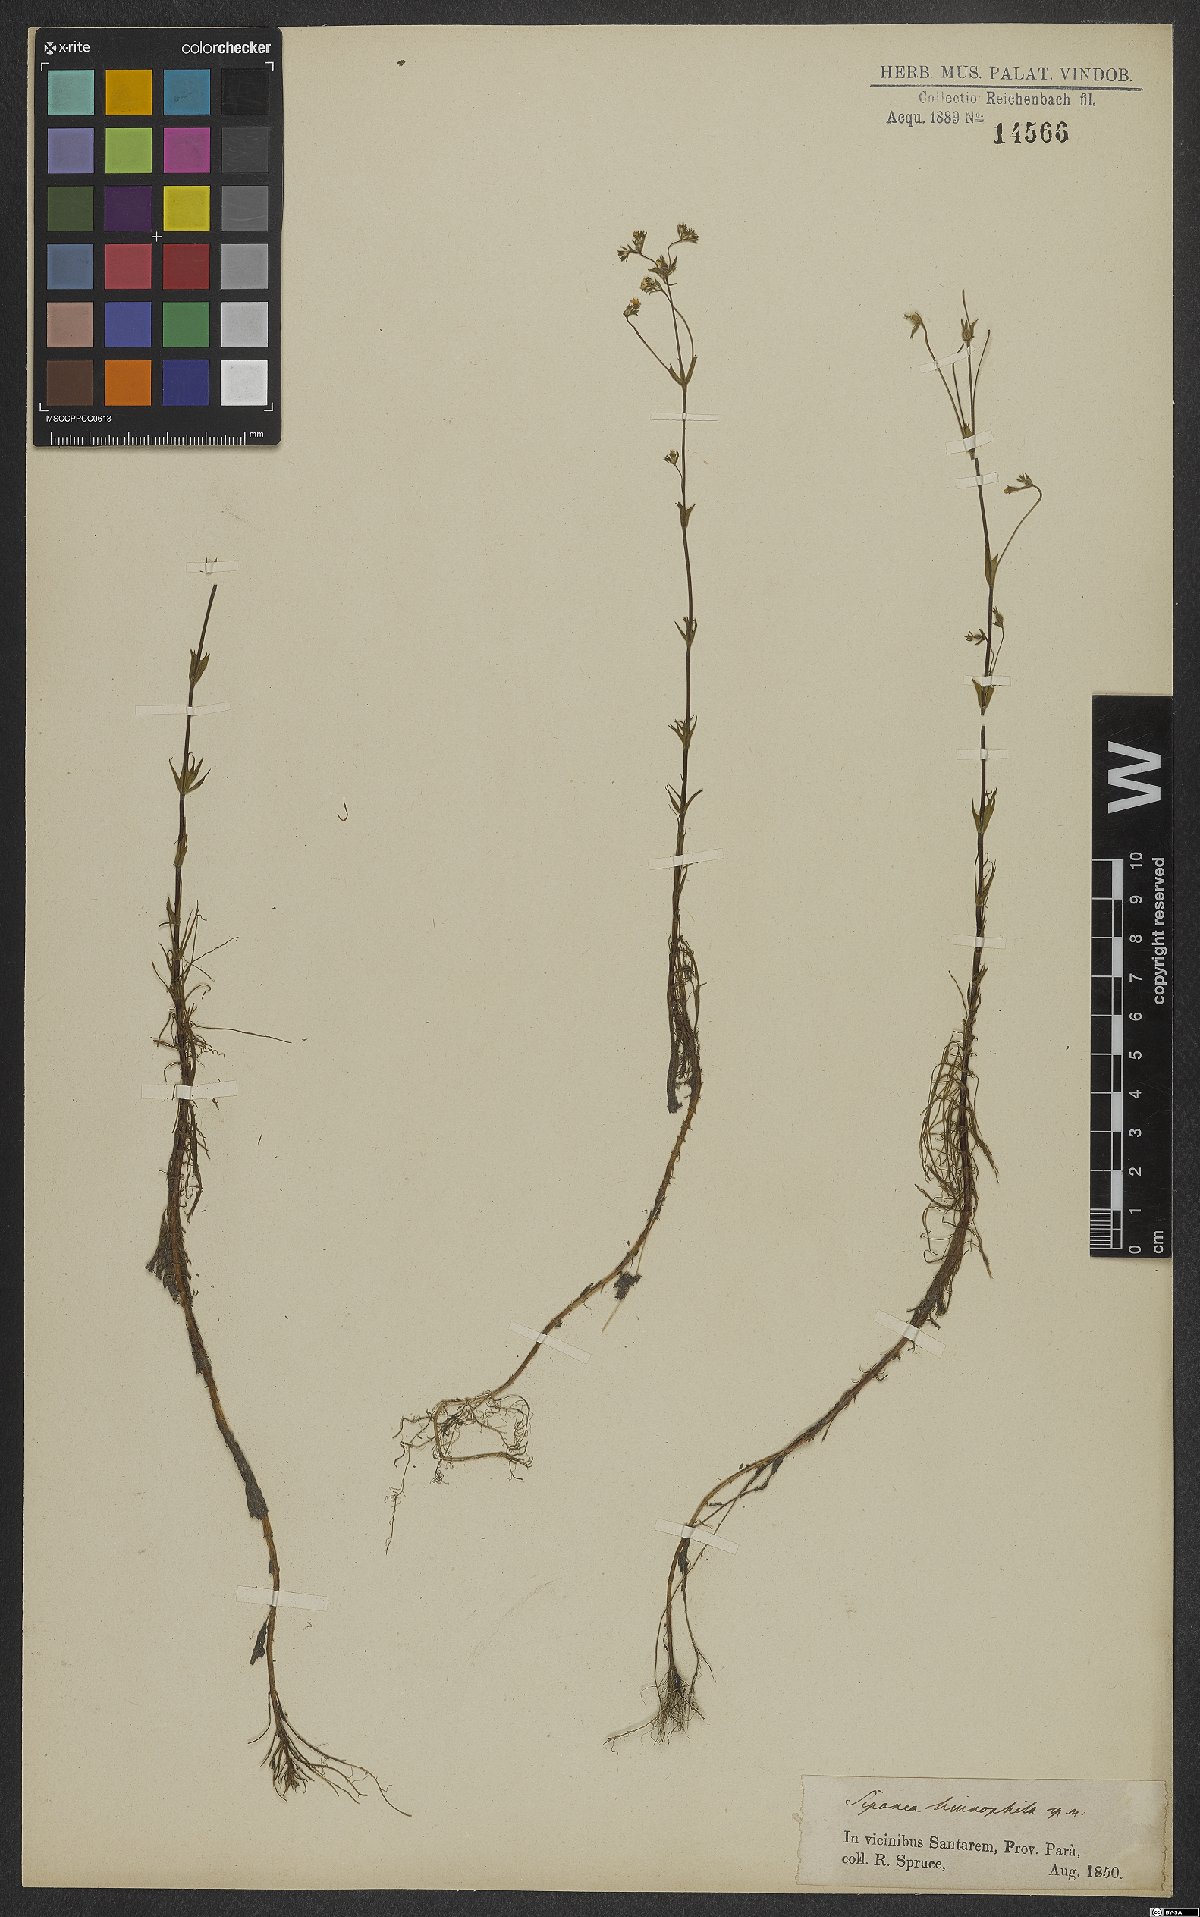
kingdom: Plantae
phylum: Tracheophyta
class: Magnoliopsida
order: Gentianales
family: Rubiaceae
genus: Limnosipanea
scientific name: Limnosipanea spruceana
